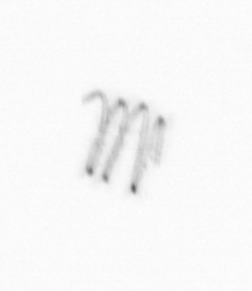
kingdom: Chromista
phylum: Ochrophyta
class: Bacillariophyceae
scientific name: Bacillariophyceae
